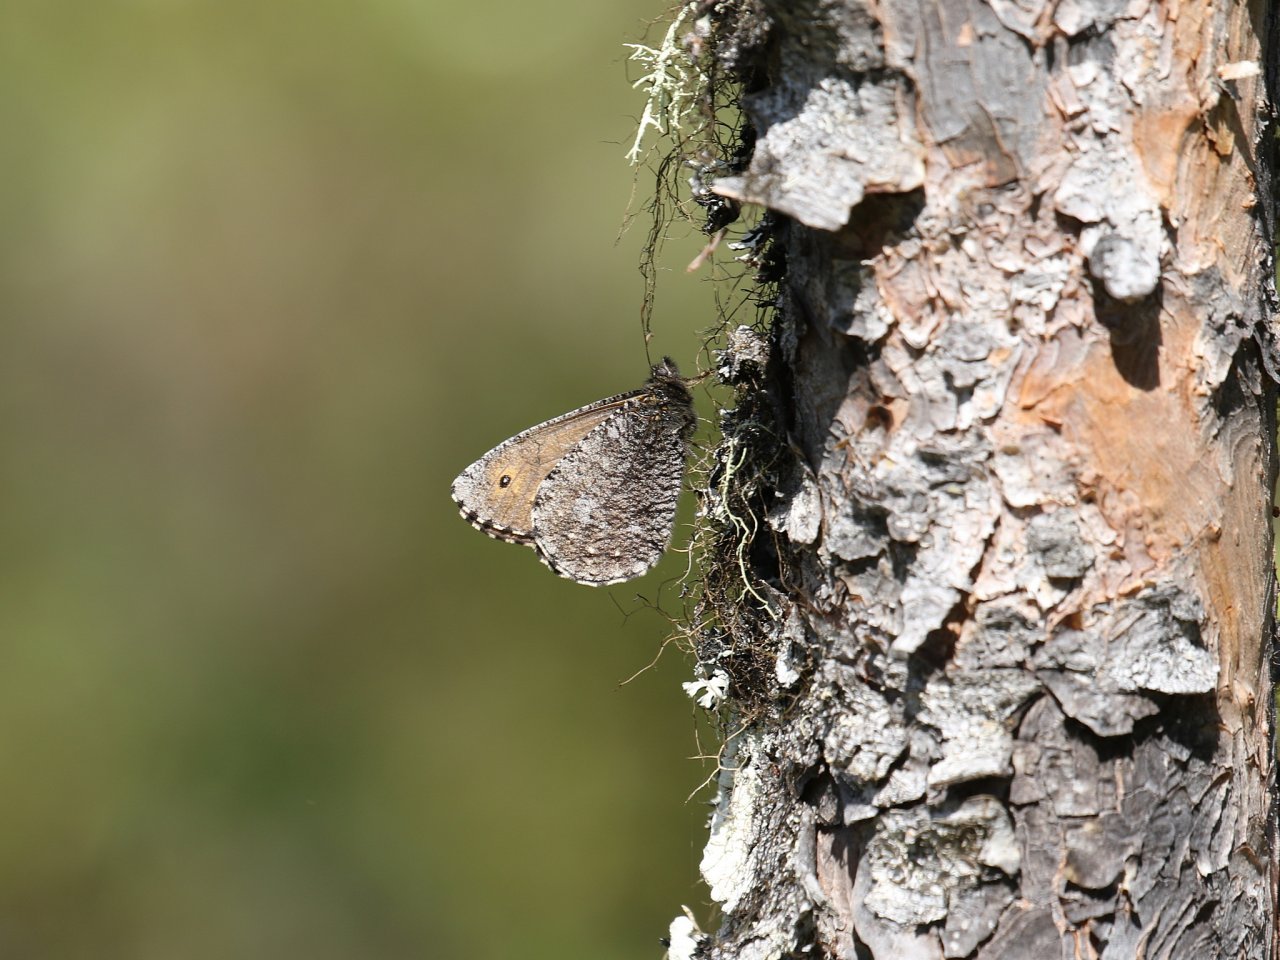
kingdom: Animalia
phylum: Arthropoda
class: Insecta
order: Lepidoptera
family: Nymphalidae
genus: Oeneis
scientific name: Oeneis jutta
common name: Jutta Arctic
